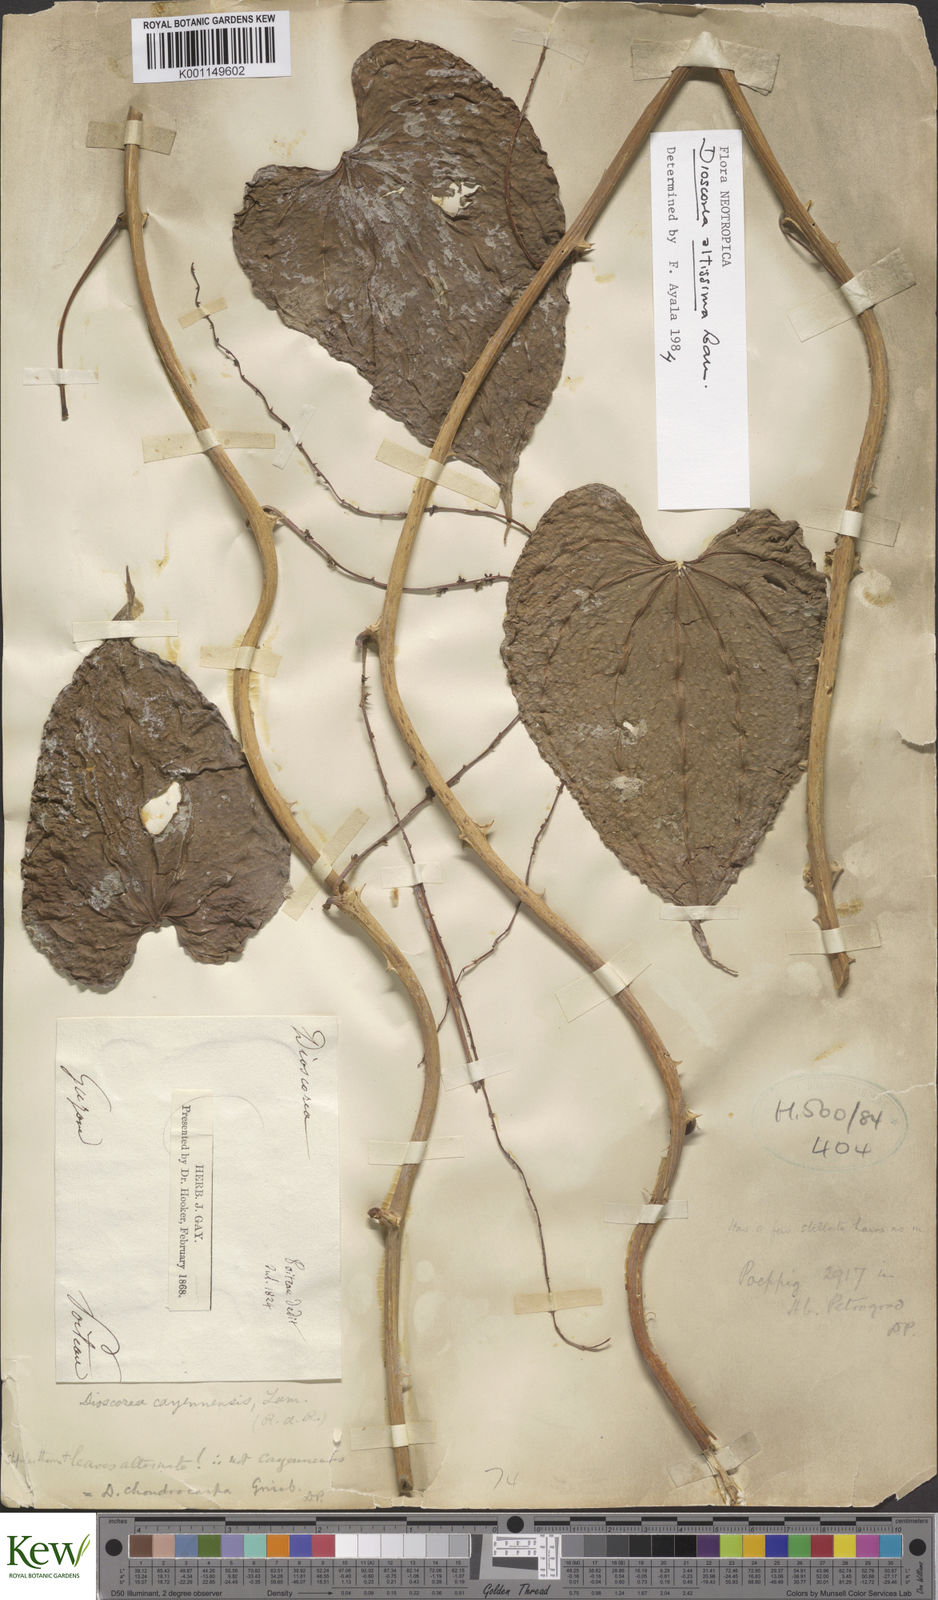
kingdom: Plantae
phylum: Tracheophyta
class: Liliopsida
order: Dioscoreales
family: Dioscoreaceae
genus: Dioscorea
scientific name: Dioscorea chondrocarpa
